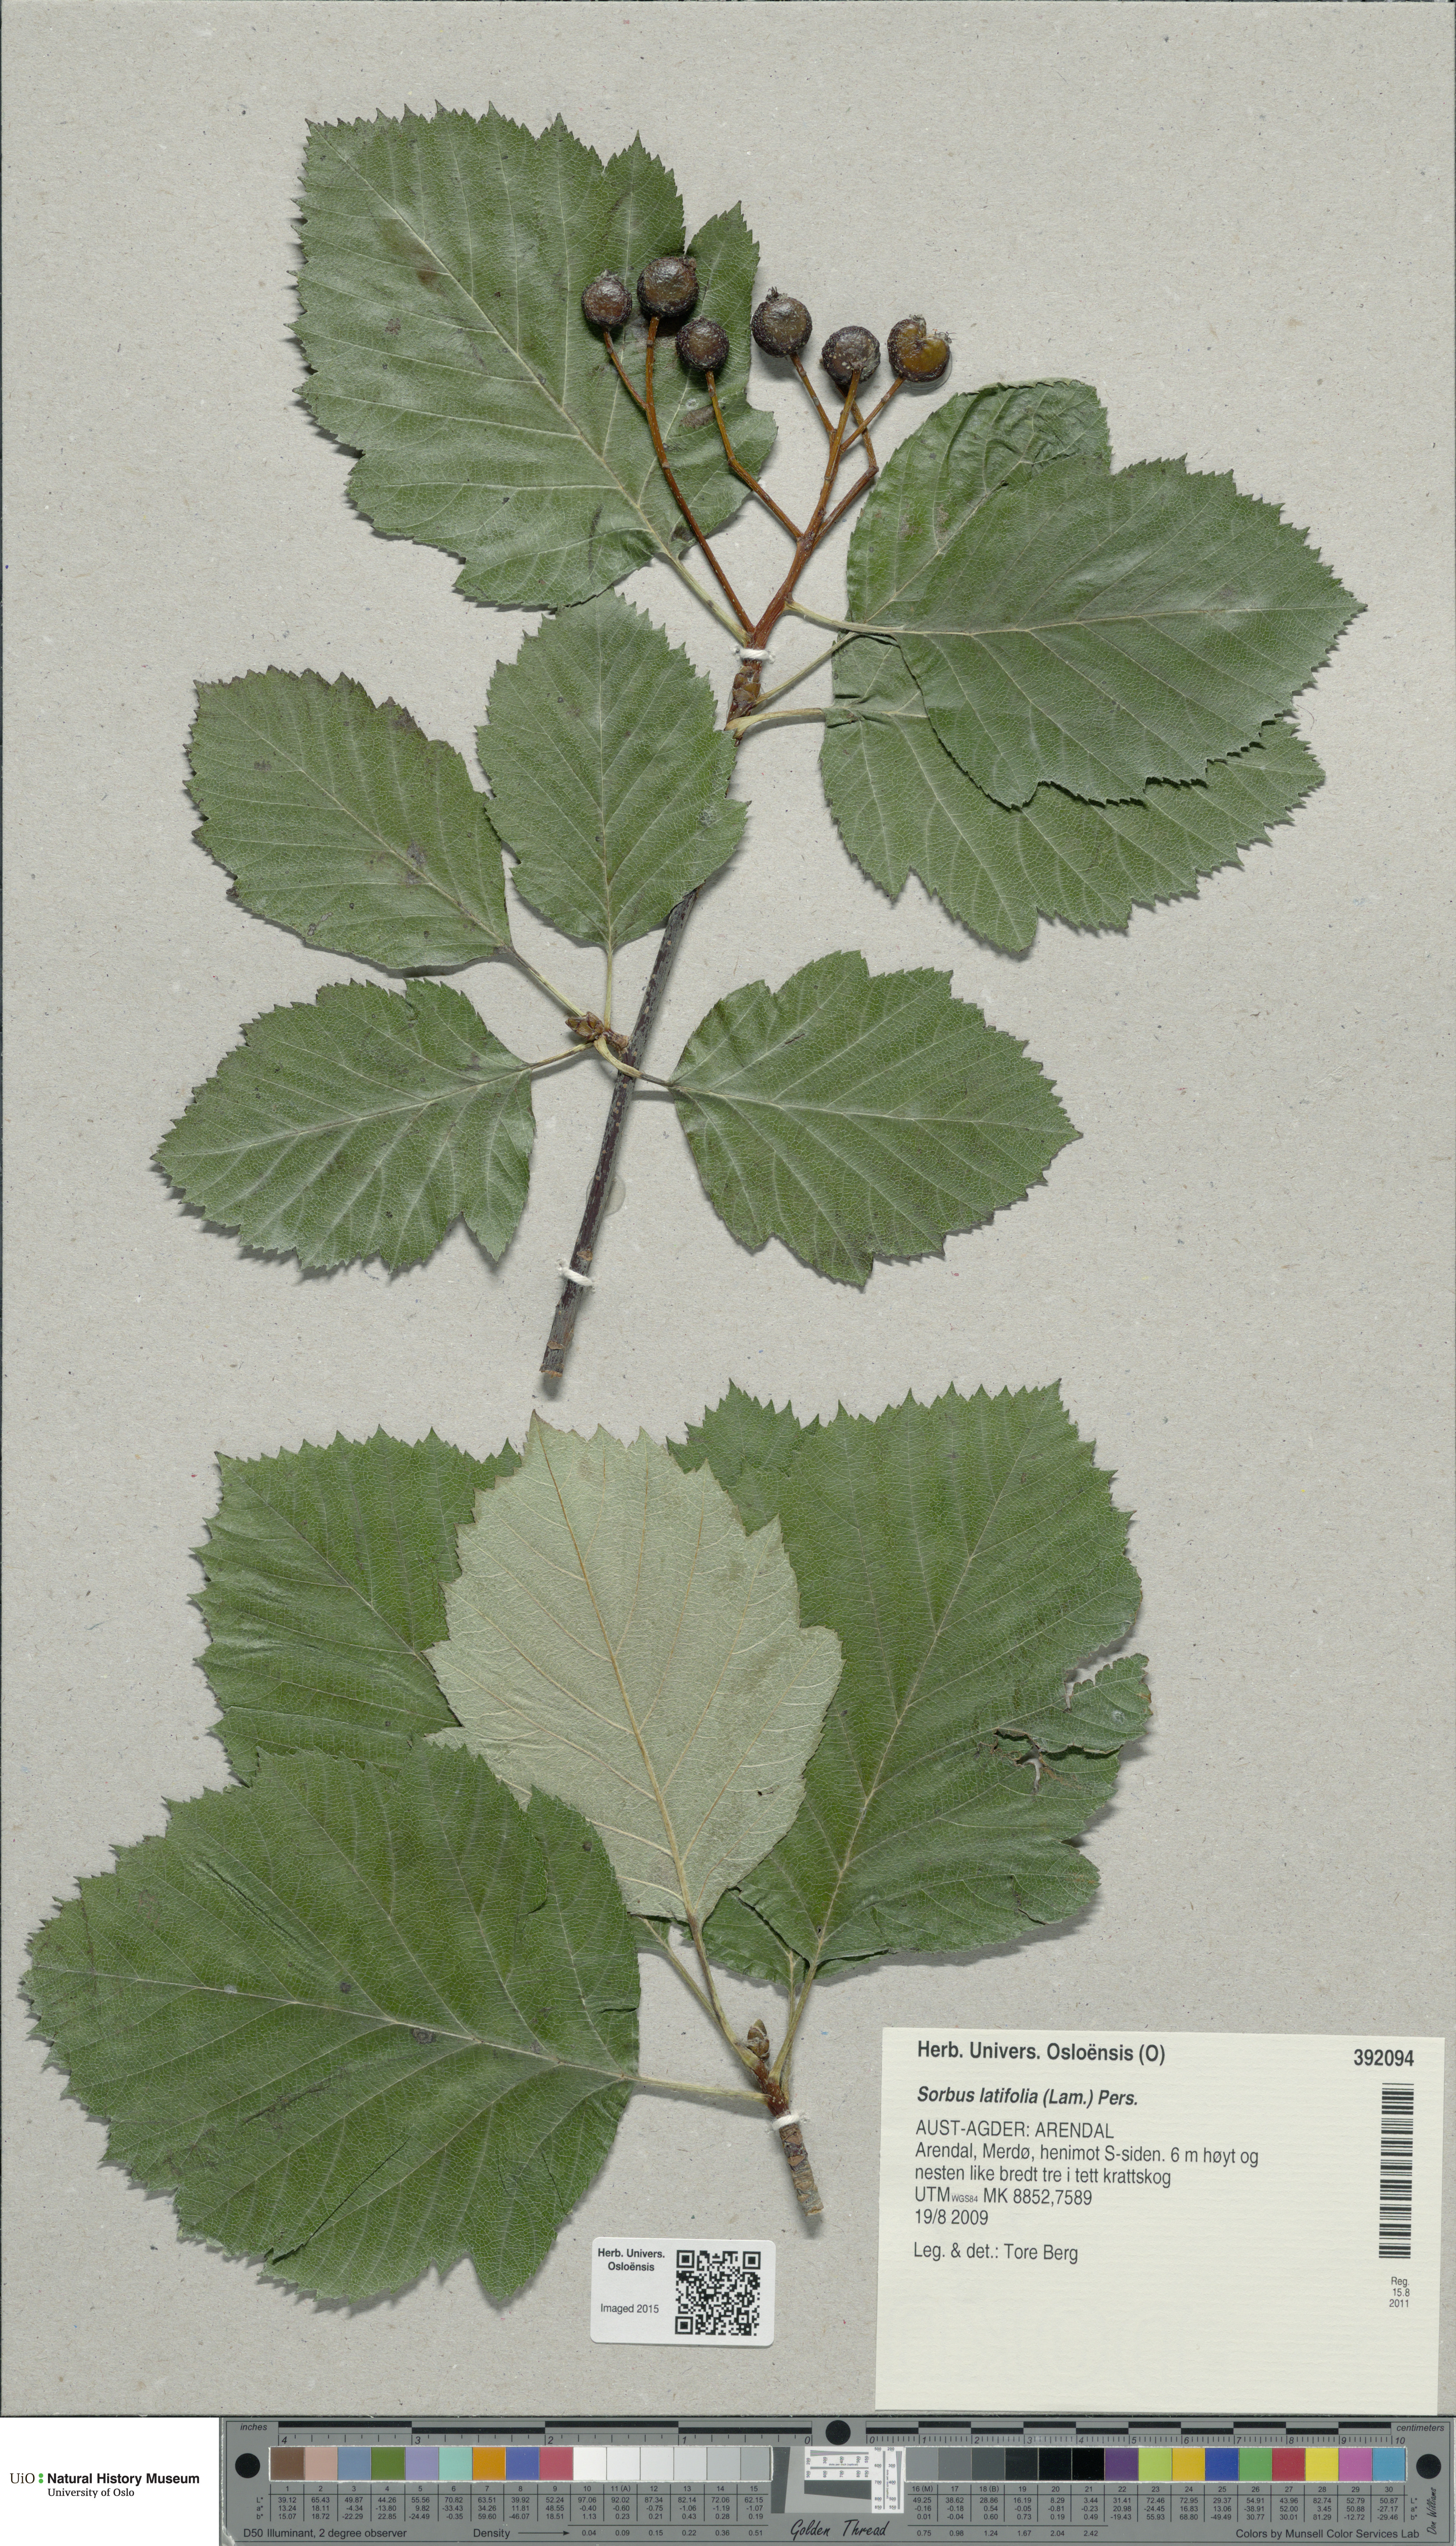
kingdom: Plantae
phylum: Tracheophyta
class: Magnoliopsida
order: Rosales
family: Rosaceae
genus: Karpatiosorbus
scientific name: Karpatiosorbus latifolia
